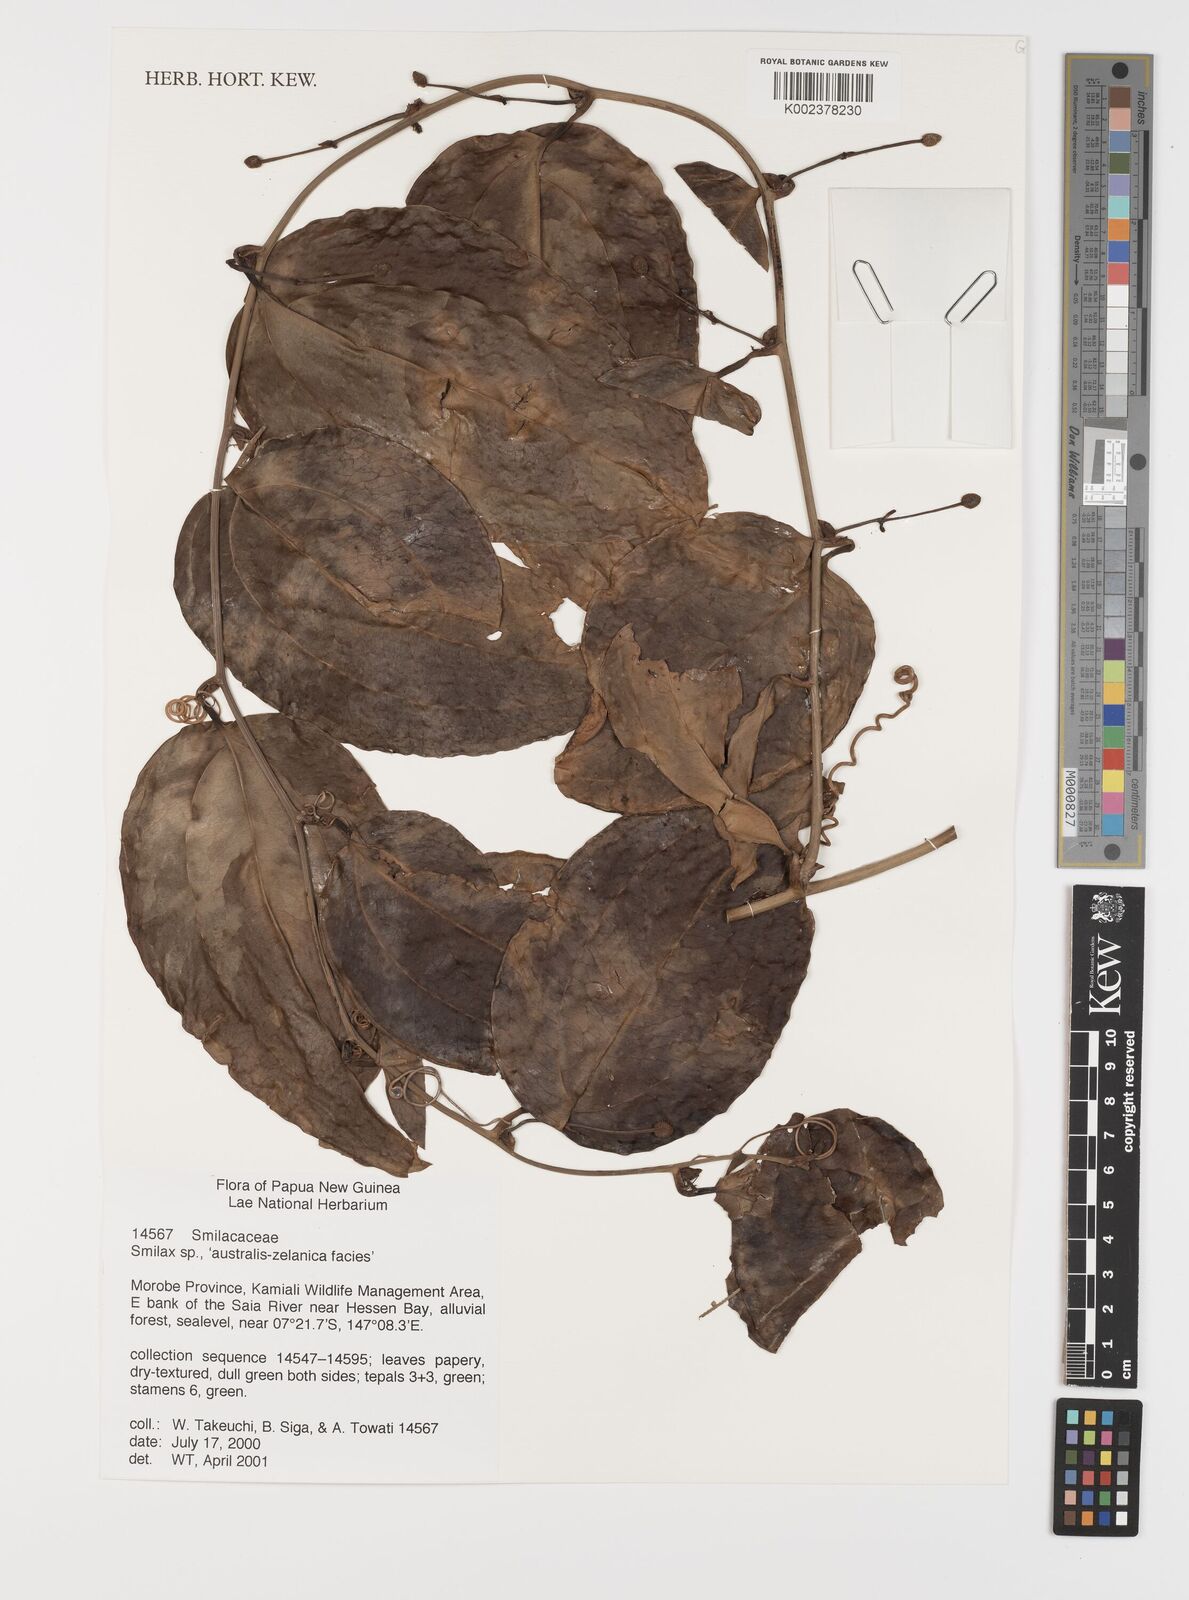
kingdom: Plantae
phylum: Tracheophyta
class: Liliopsida
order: Liliales
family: Smilacaceae
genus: Smilax
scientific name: Smilax
